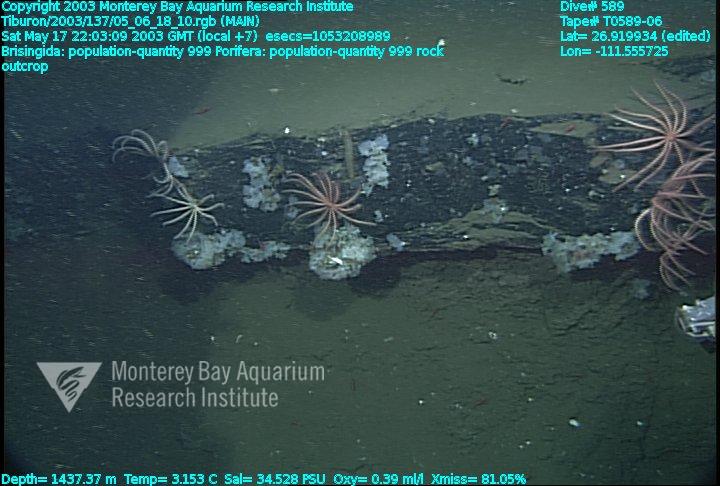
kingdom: Animalia
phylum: Porifera
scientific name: Porifera
